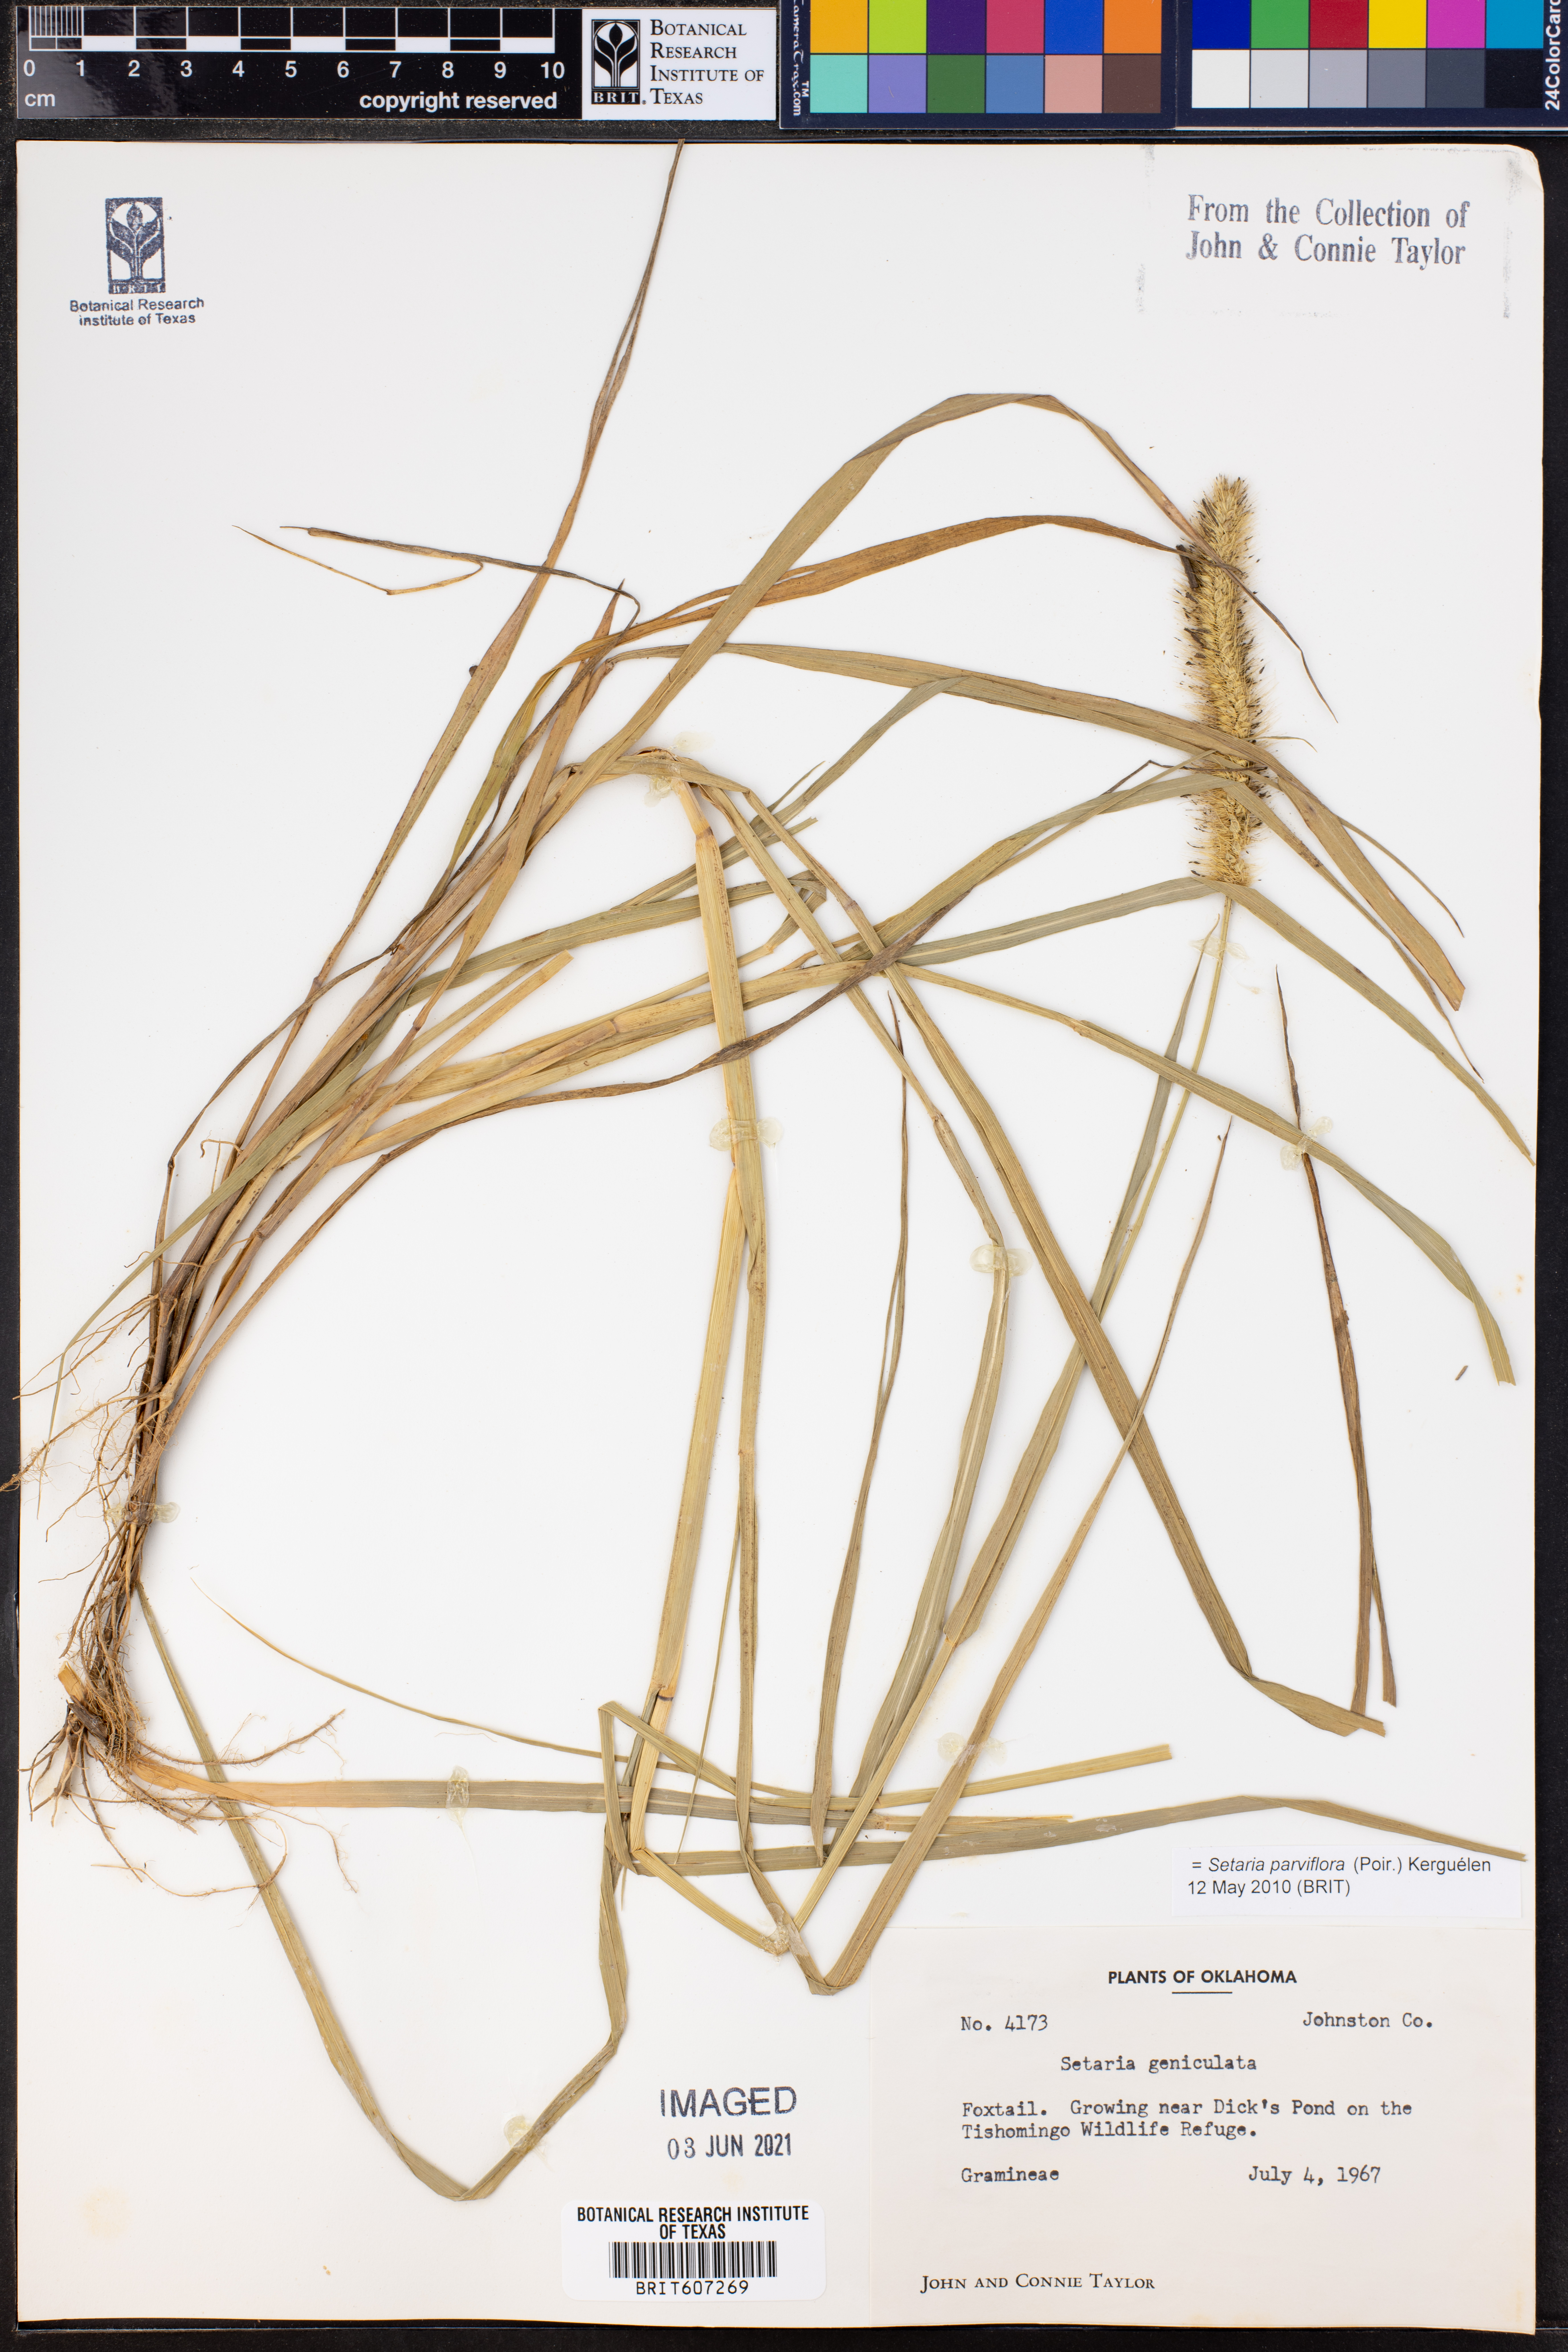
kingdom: Plantae
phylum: Tracheophyta
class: Liliopsida
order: Poales
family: Poaceae
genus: Setaria
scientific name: Setaria parviflora
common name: Knotroot bristle-grass
